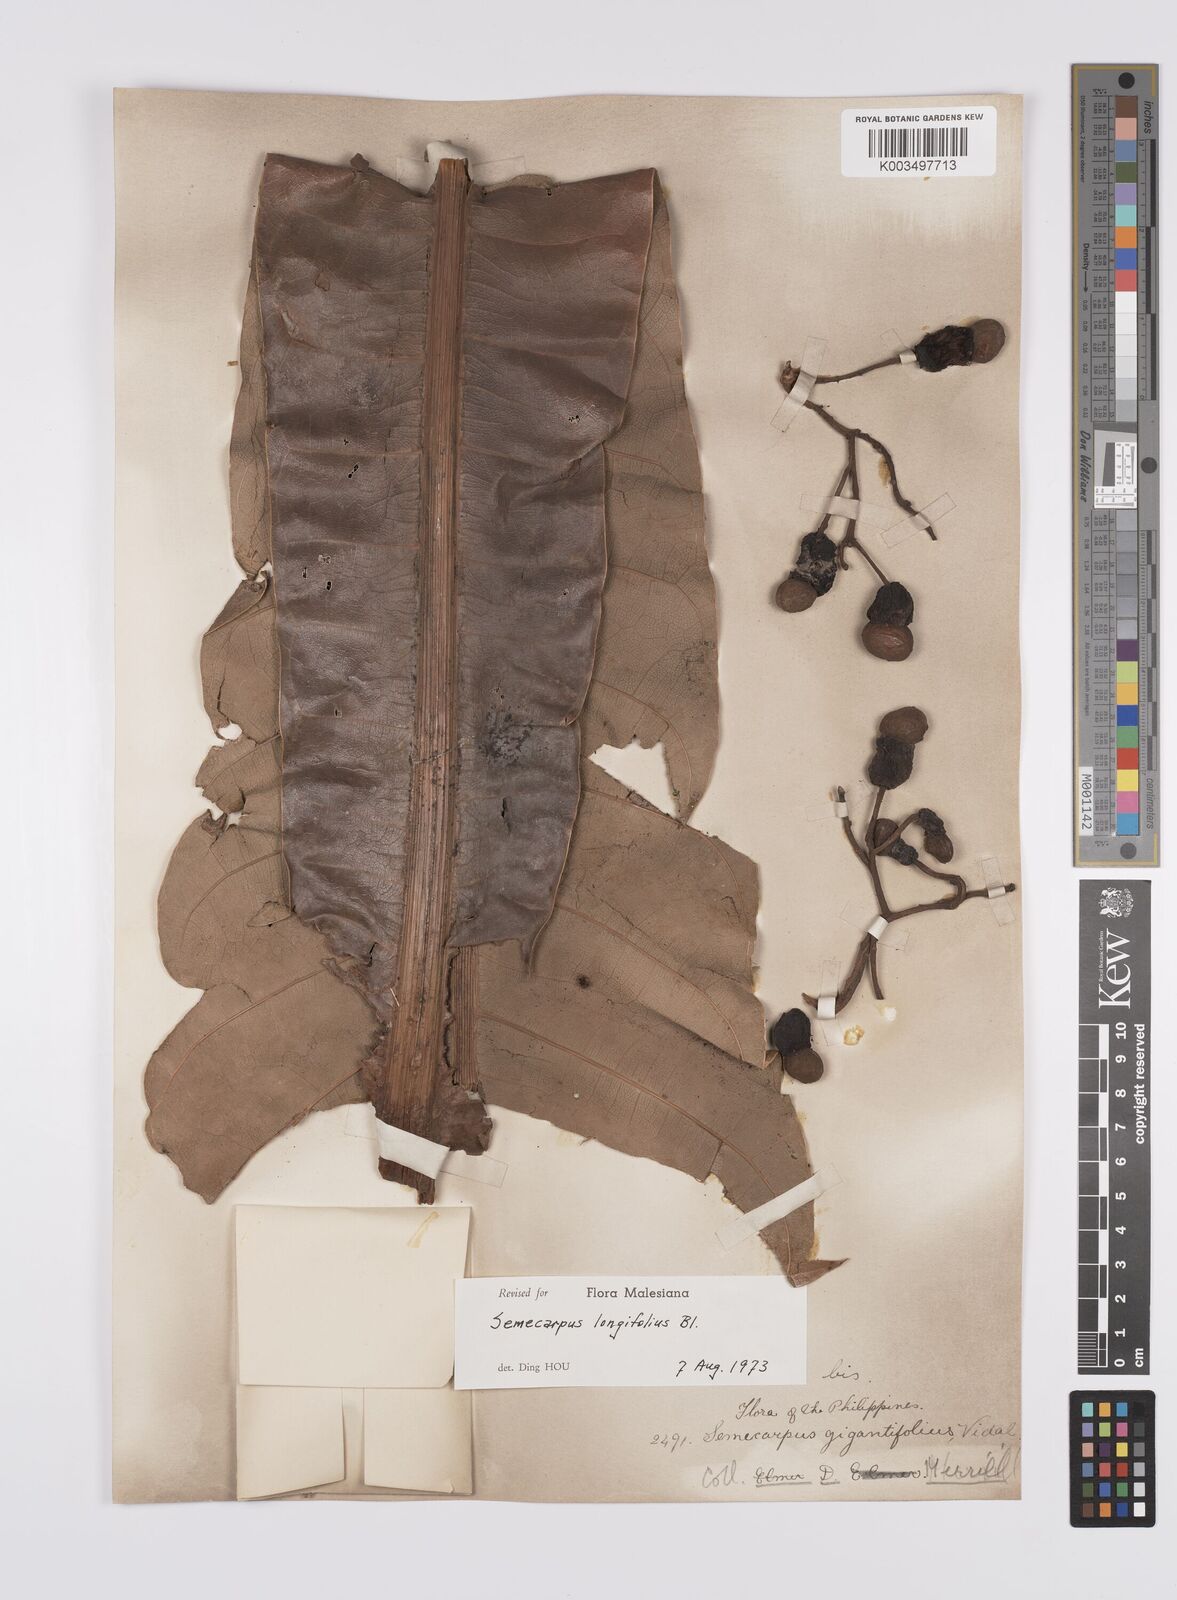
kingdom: Plantae
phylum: Tracheophyta
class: Magnoliopsida
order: Sapindales
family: Anacardiaceae
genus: Semecarpus
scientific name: Semecarpus longifolius
